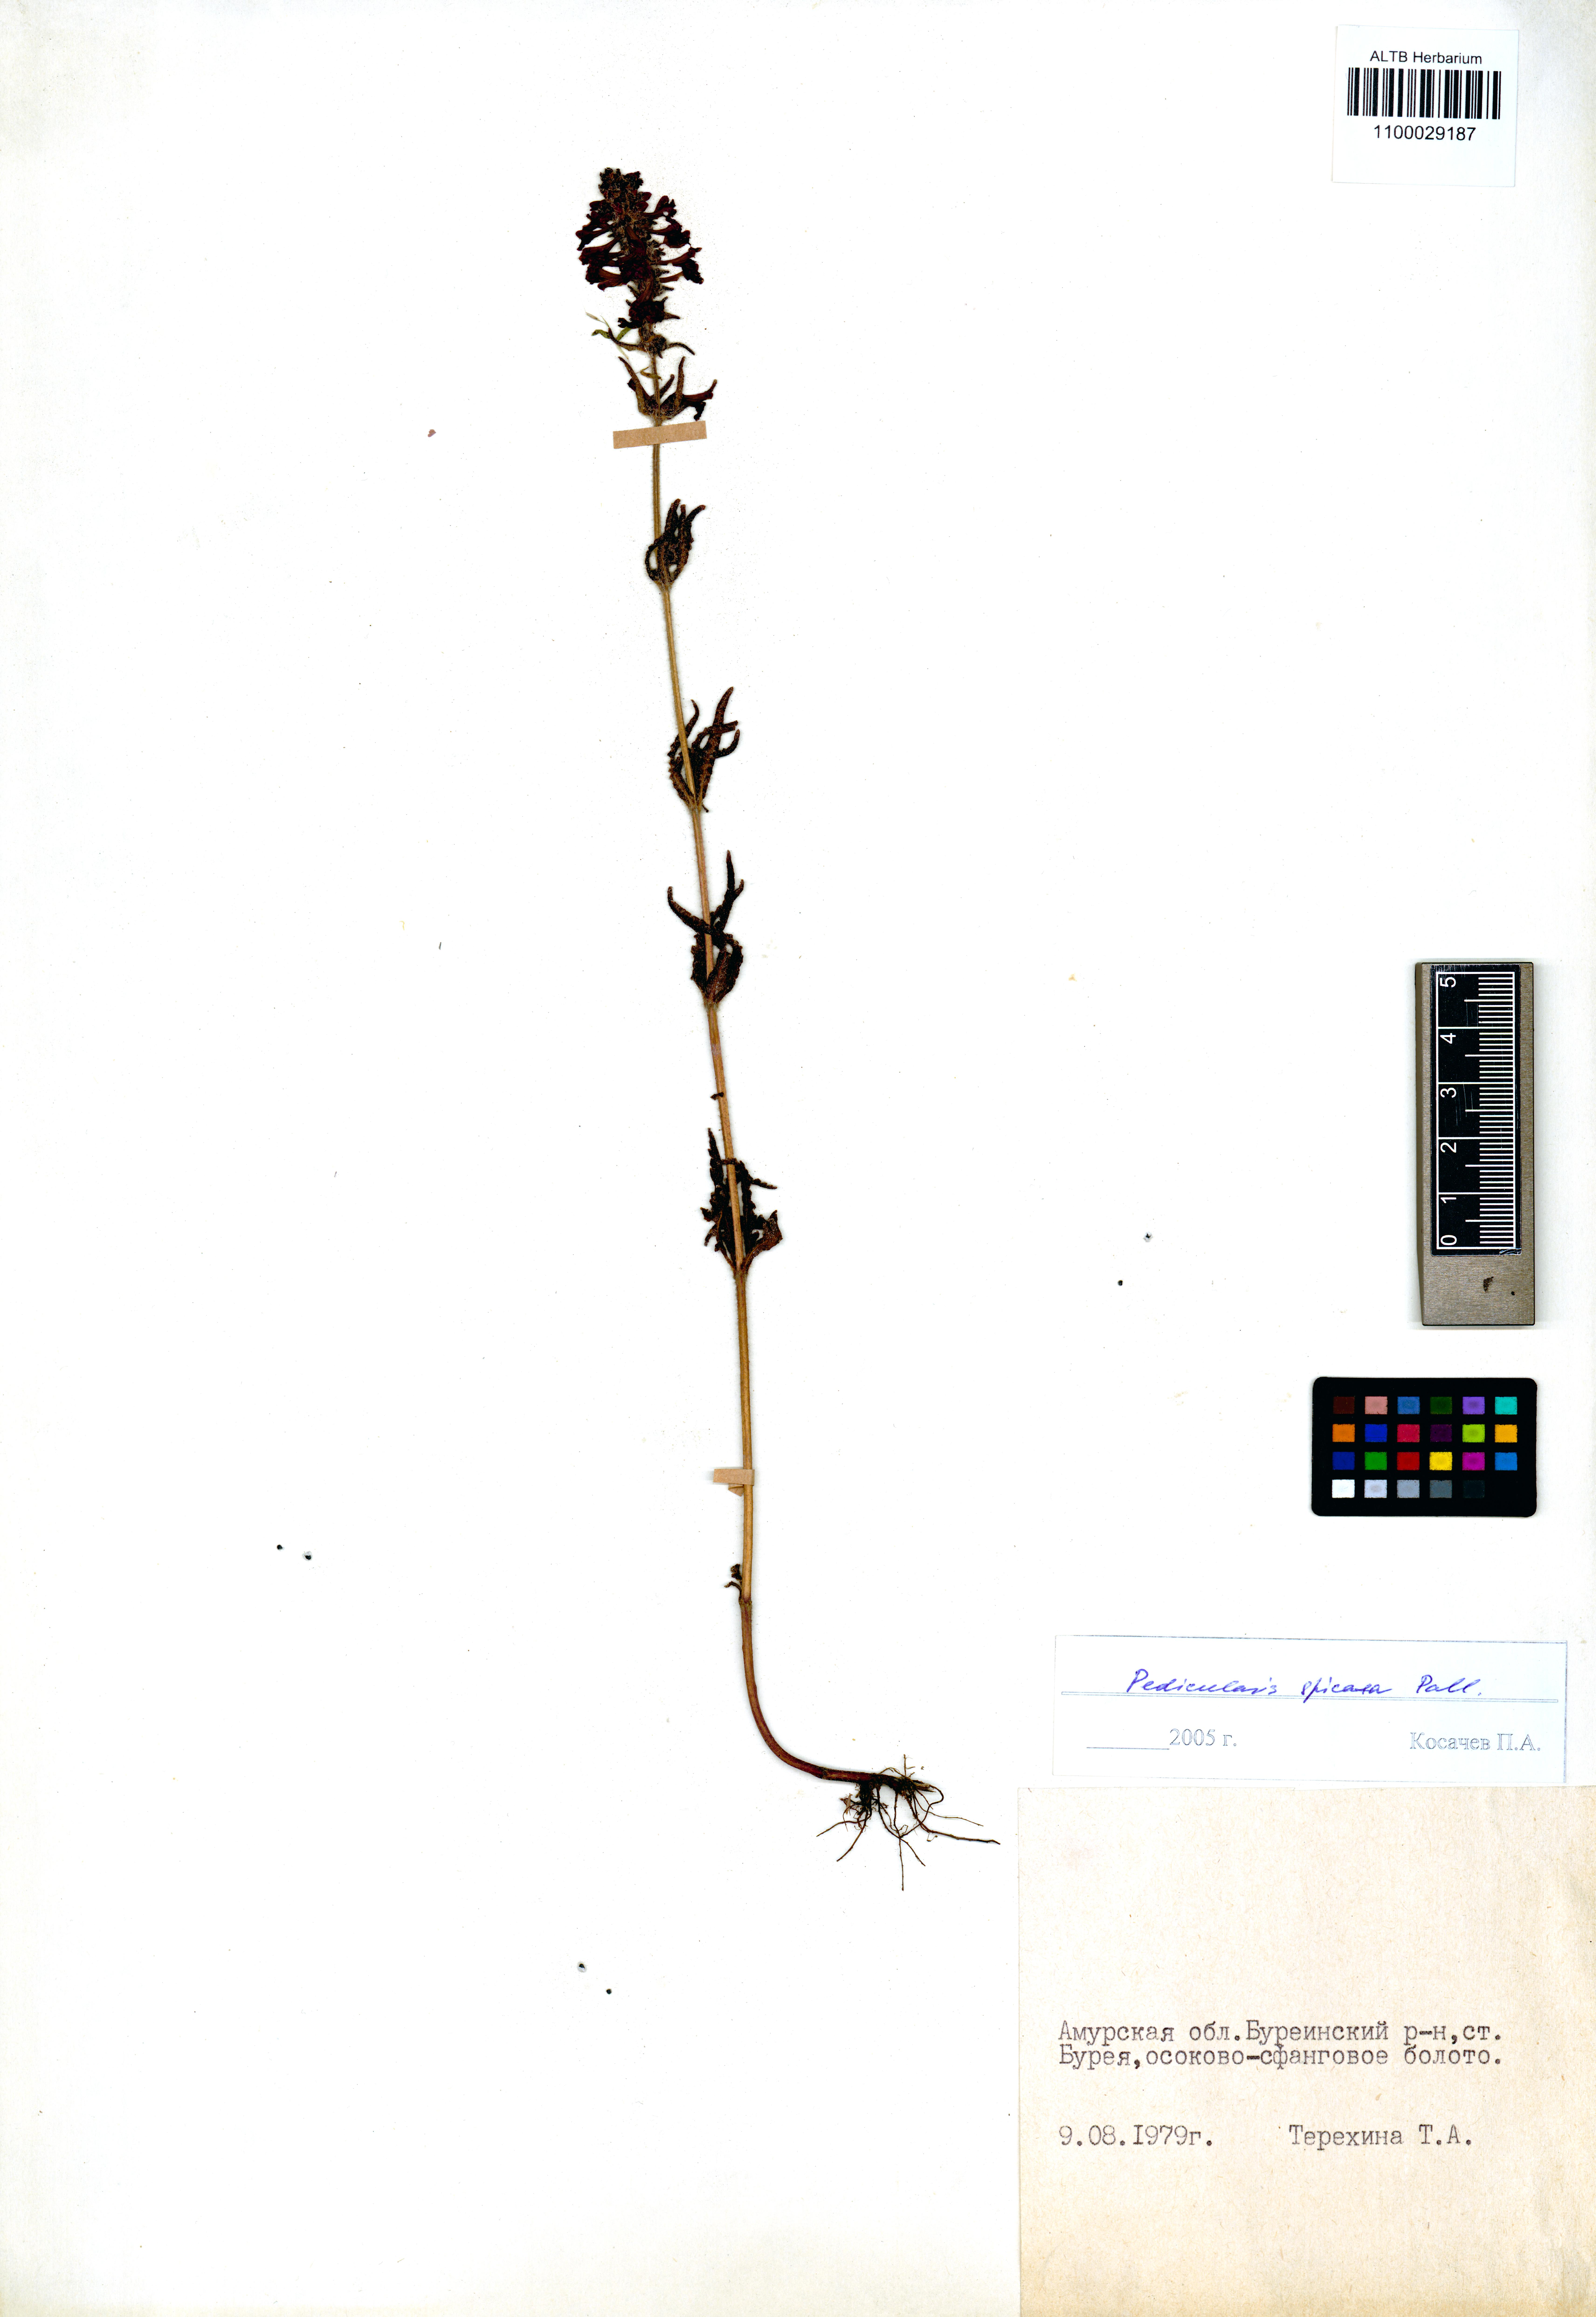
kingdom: Plantae
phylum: Tracheophyta
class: Magnoliopsida
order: Lamiales
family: Orobanchaceae
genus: Pedicularis
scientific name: Pedicularis spicata
